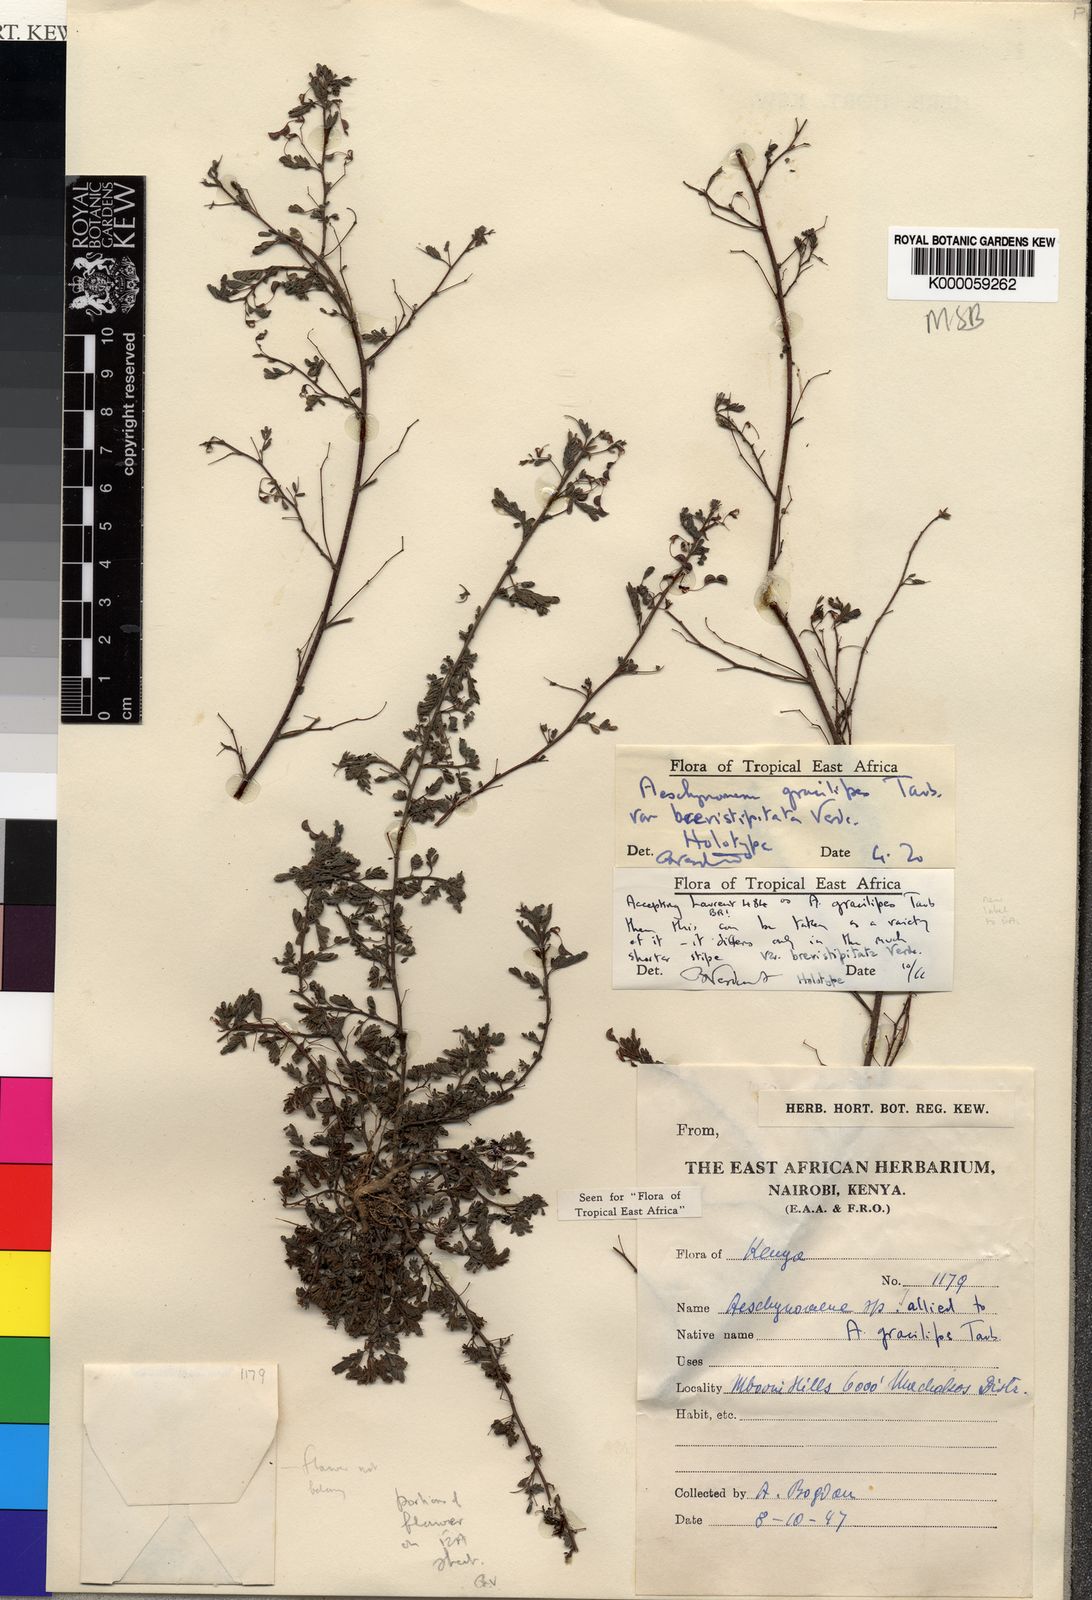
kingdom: Plantae
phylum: Tracheophyta
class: Magnoliopsida
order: Fabales
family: Fabaceae
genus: Aeschynomene
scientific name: Aeschynomene gracilipes
